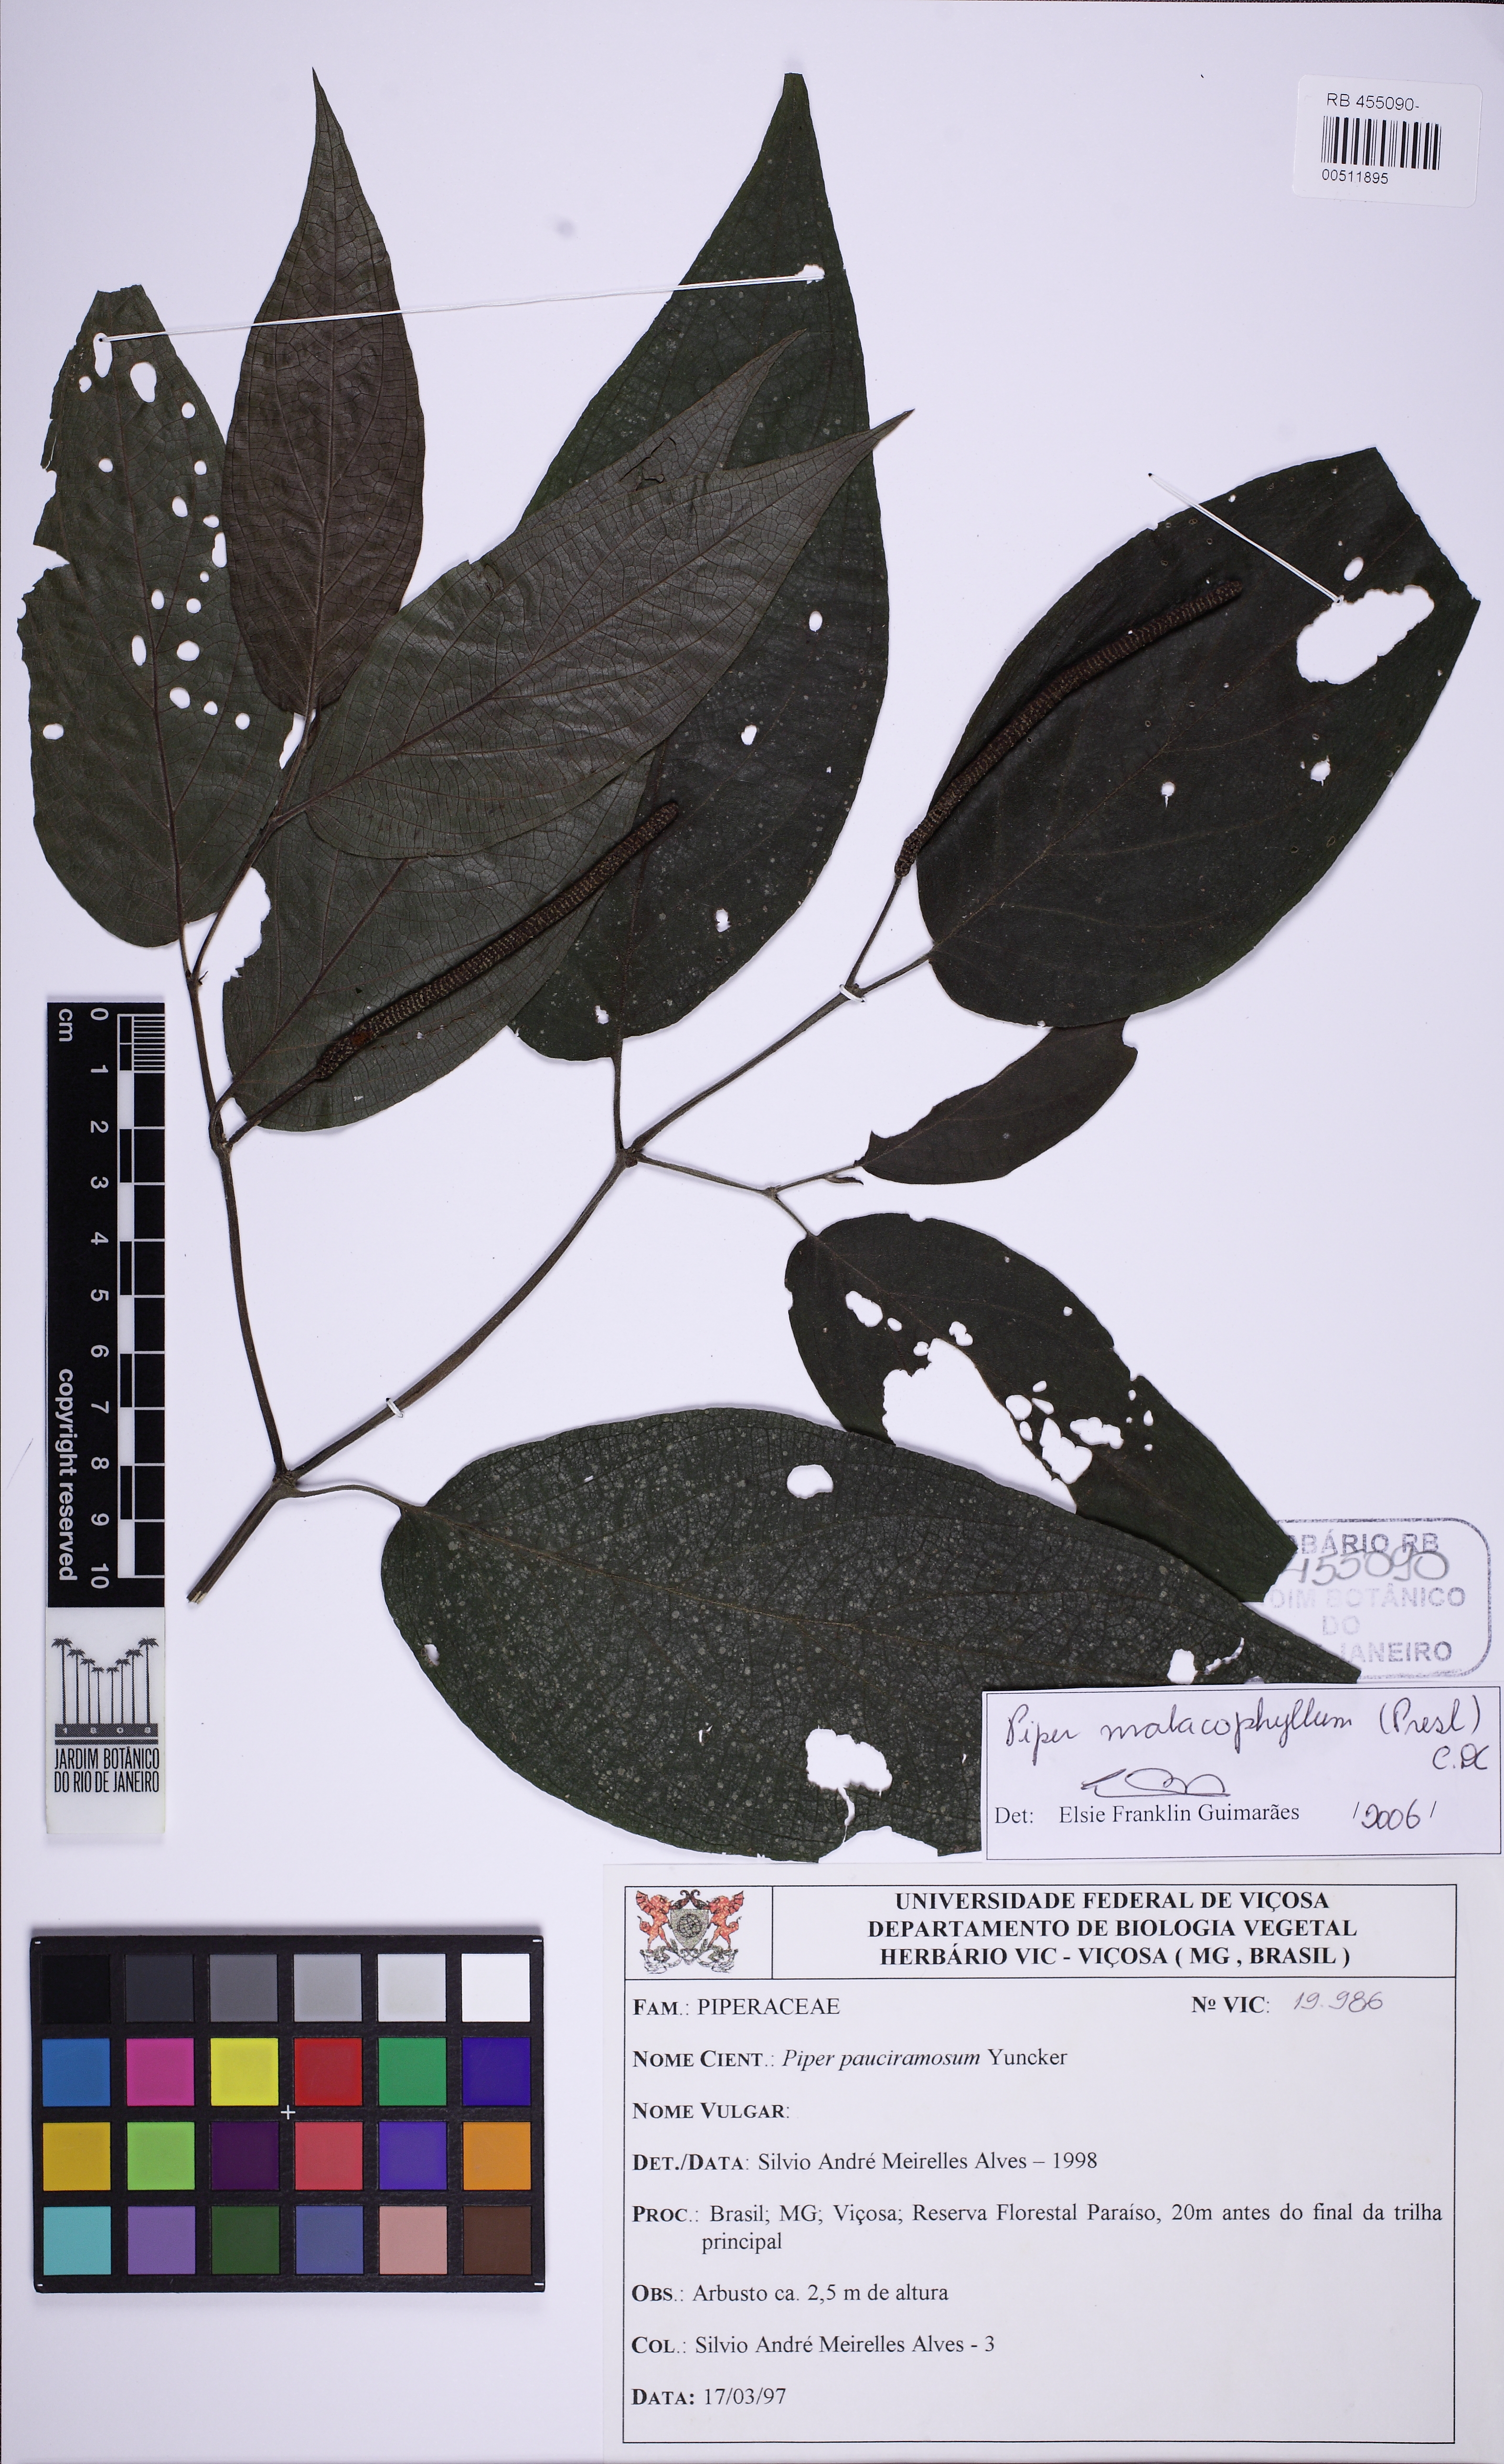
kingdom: Plantae
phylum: Tracheophyta
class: Magnoliopsida
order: Piperales
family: Piperaceae
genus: Piper
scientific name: Piper malacophyllum
